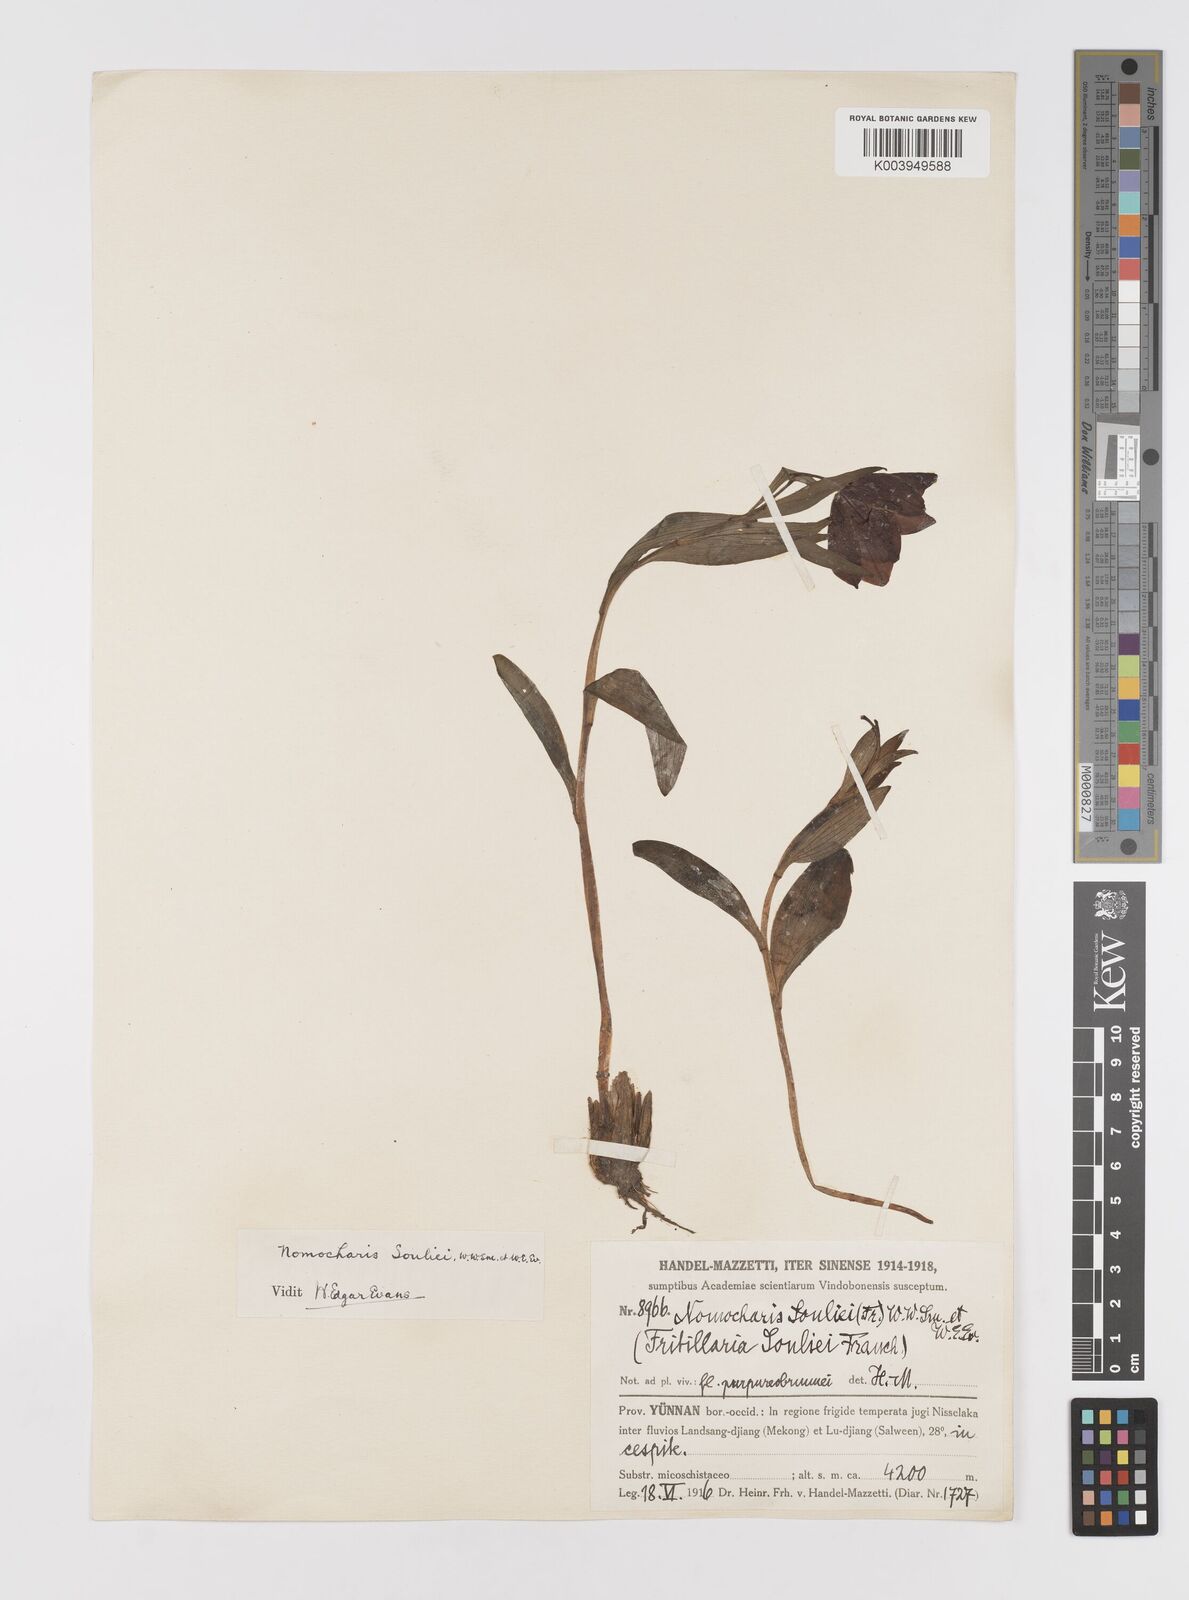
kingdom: Plantae
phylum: Tracheophyta
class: Liliopsida
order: Liliales
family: Liliaceae
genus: Lilium
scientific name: Lilium souliei
